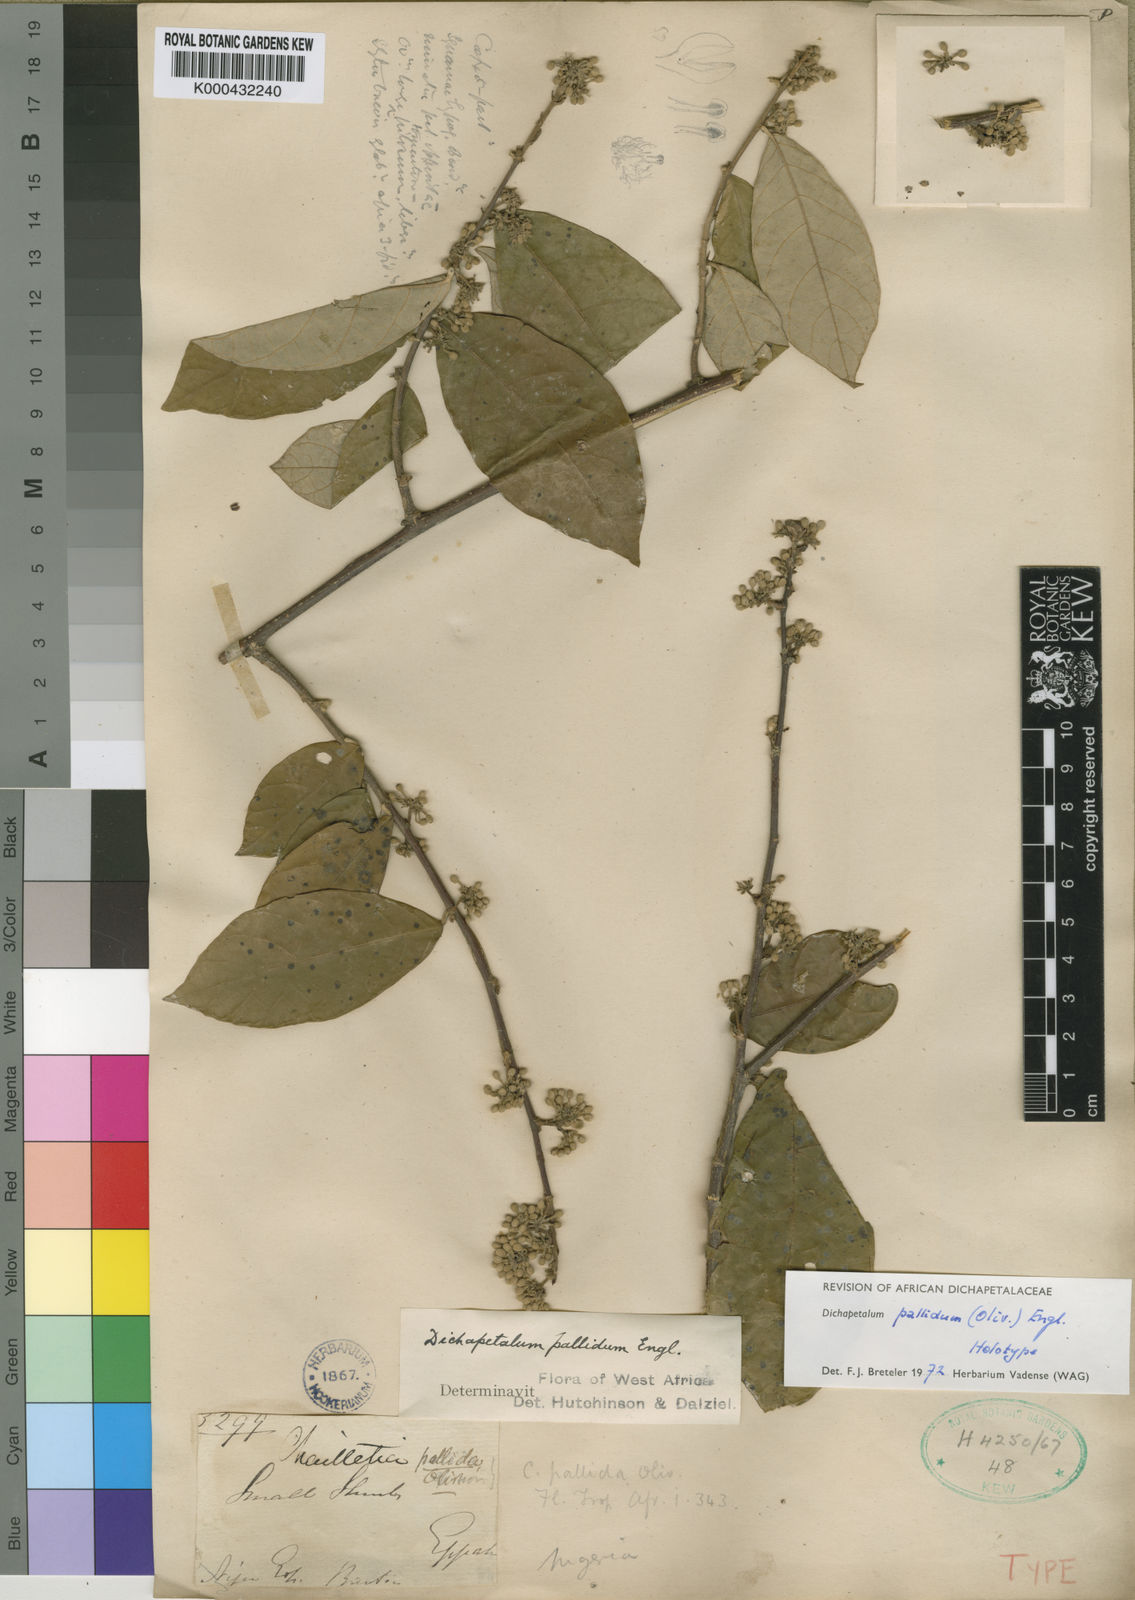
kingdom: Plantae
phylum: Tracheophyta
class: Magnoliopsida
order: Malpighiales
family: Dichapetalaceae
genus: Dichapetalum
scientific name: Dichapetalum pallidum
